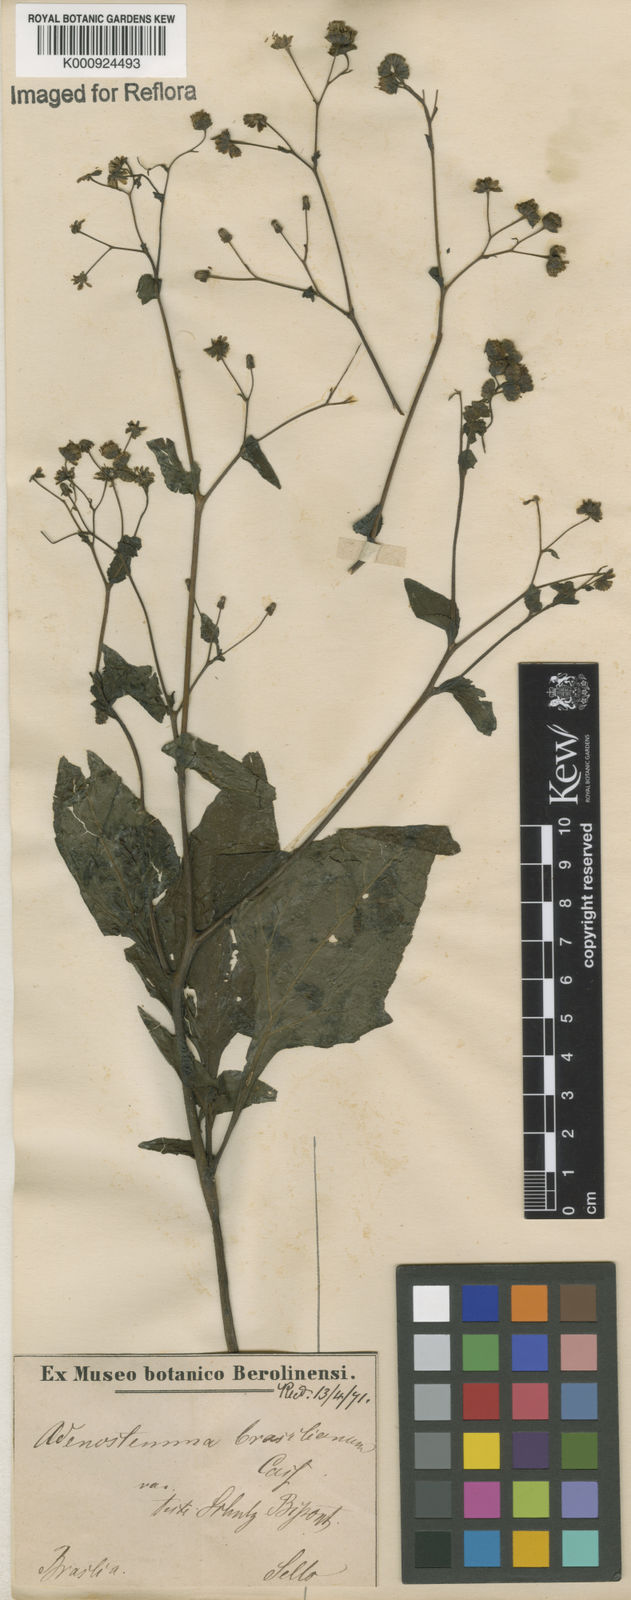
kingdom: Plantae
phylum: Tracheophyta
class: Magnoliopsida
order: Asterales
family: Asteraceae
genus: Adenostemma
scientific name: Adenostemma
